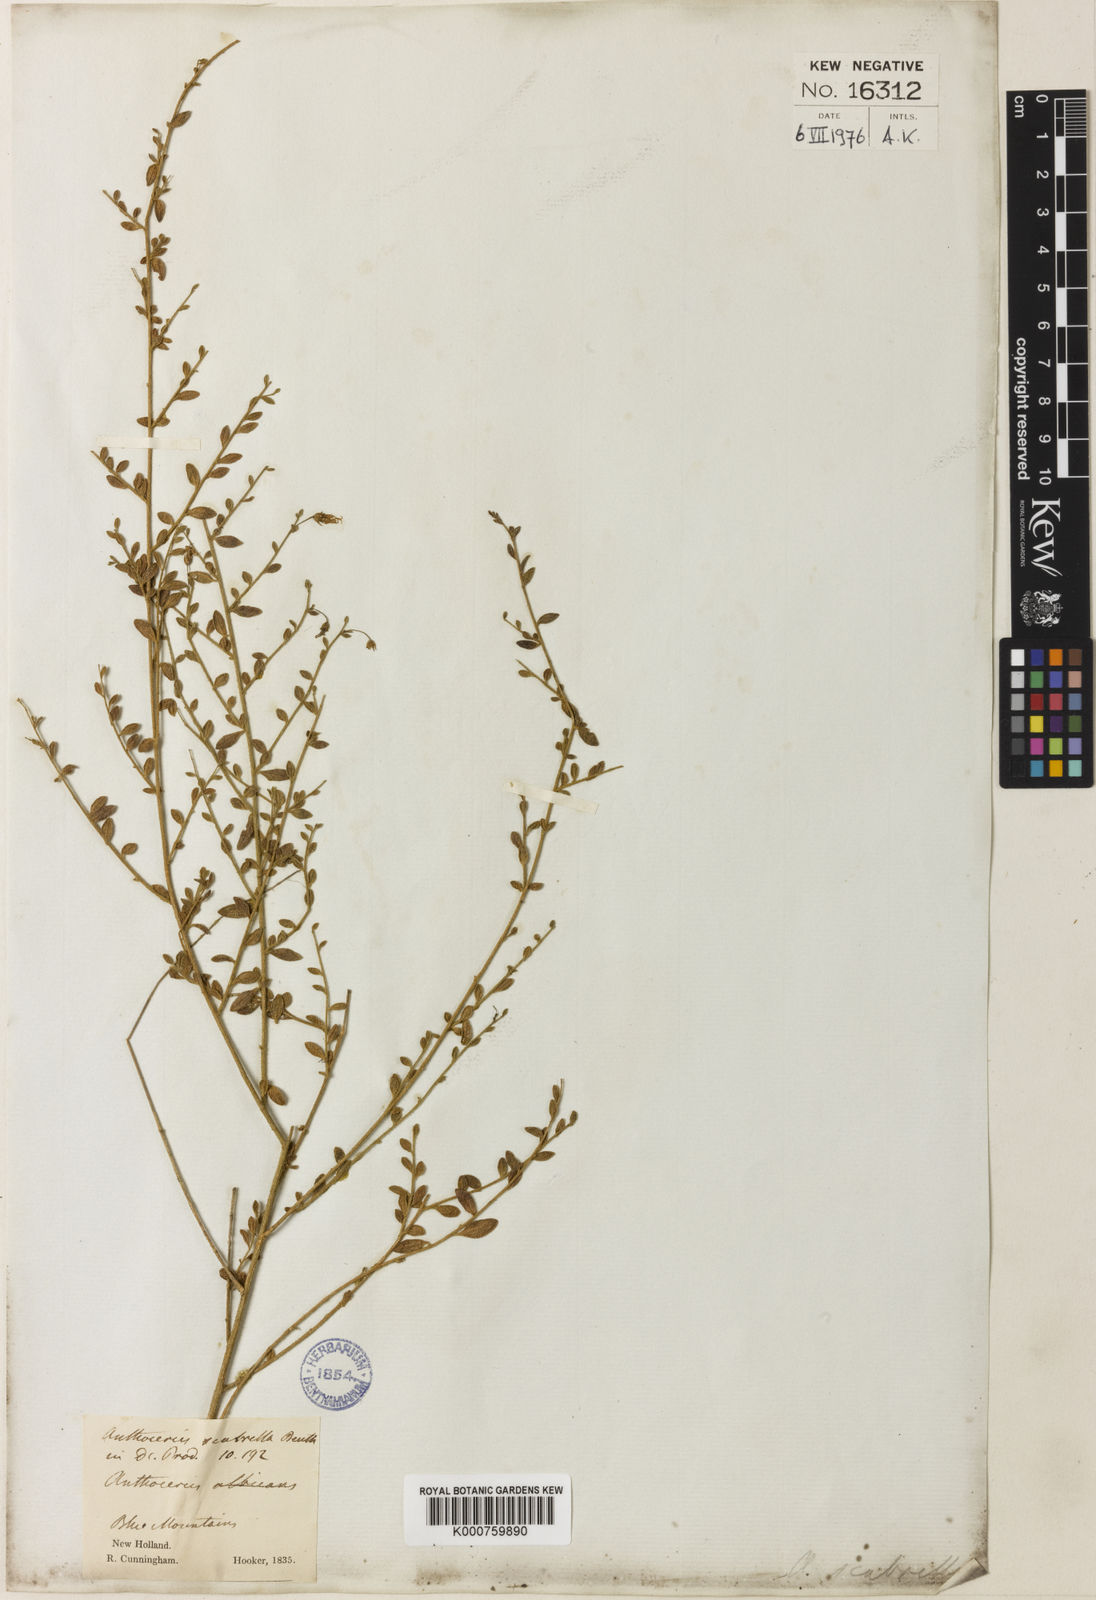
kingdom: Plantae
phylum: Tracheophyta
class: Magnoliopsida
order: Solanales
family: Solanaceae
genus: Cyphanthera
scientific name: Cyphanthera scabrella
